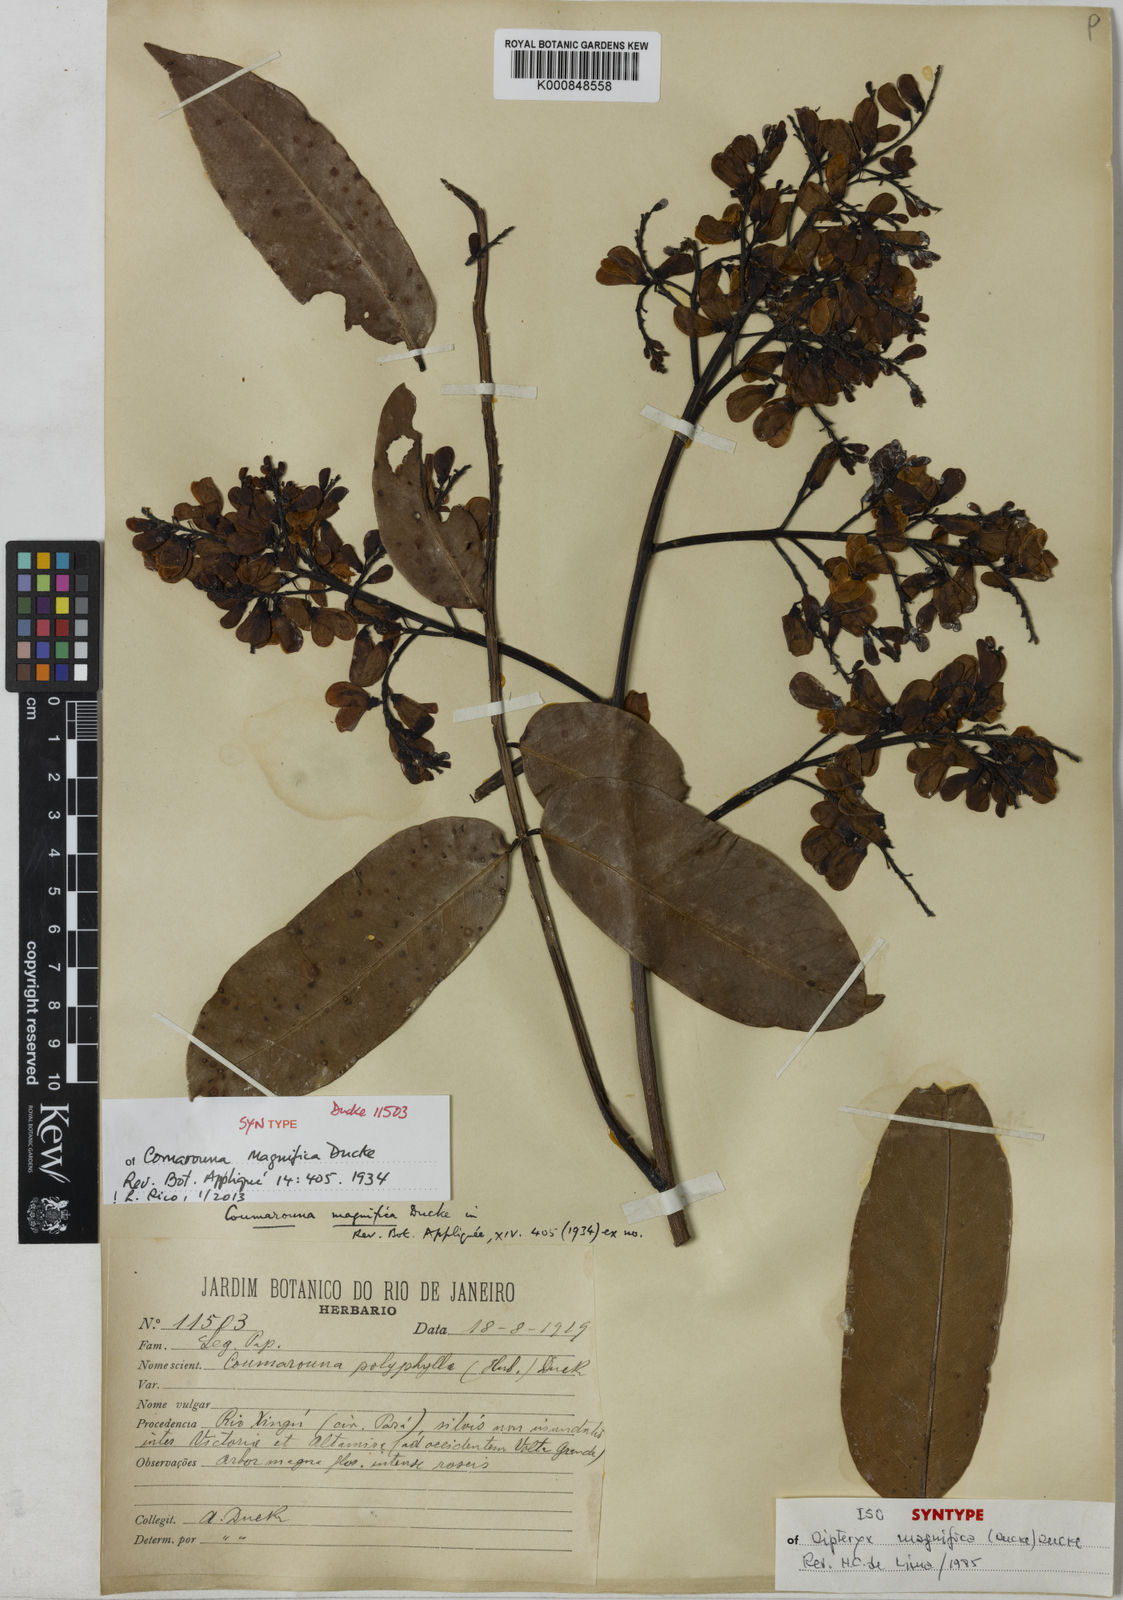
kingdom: Plantae
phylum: Tracheophyta
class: Magnoliopsida
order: Fabales
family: Fabaceae
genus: Dipteryx
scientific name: Dipteryx magnifica
